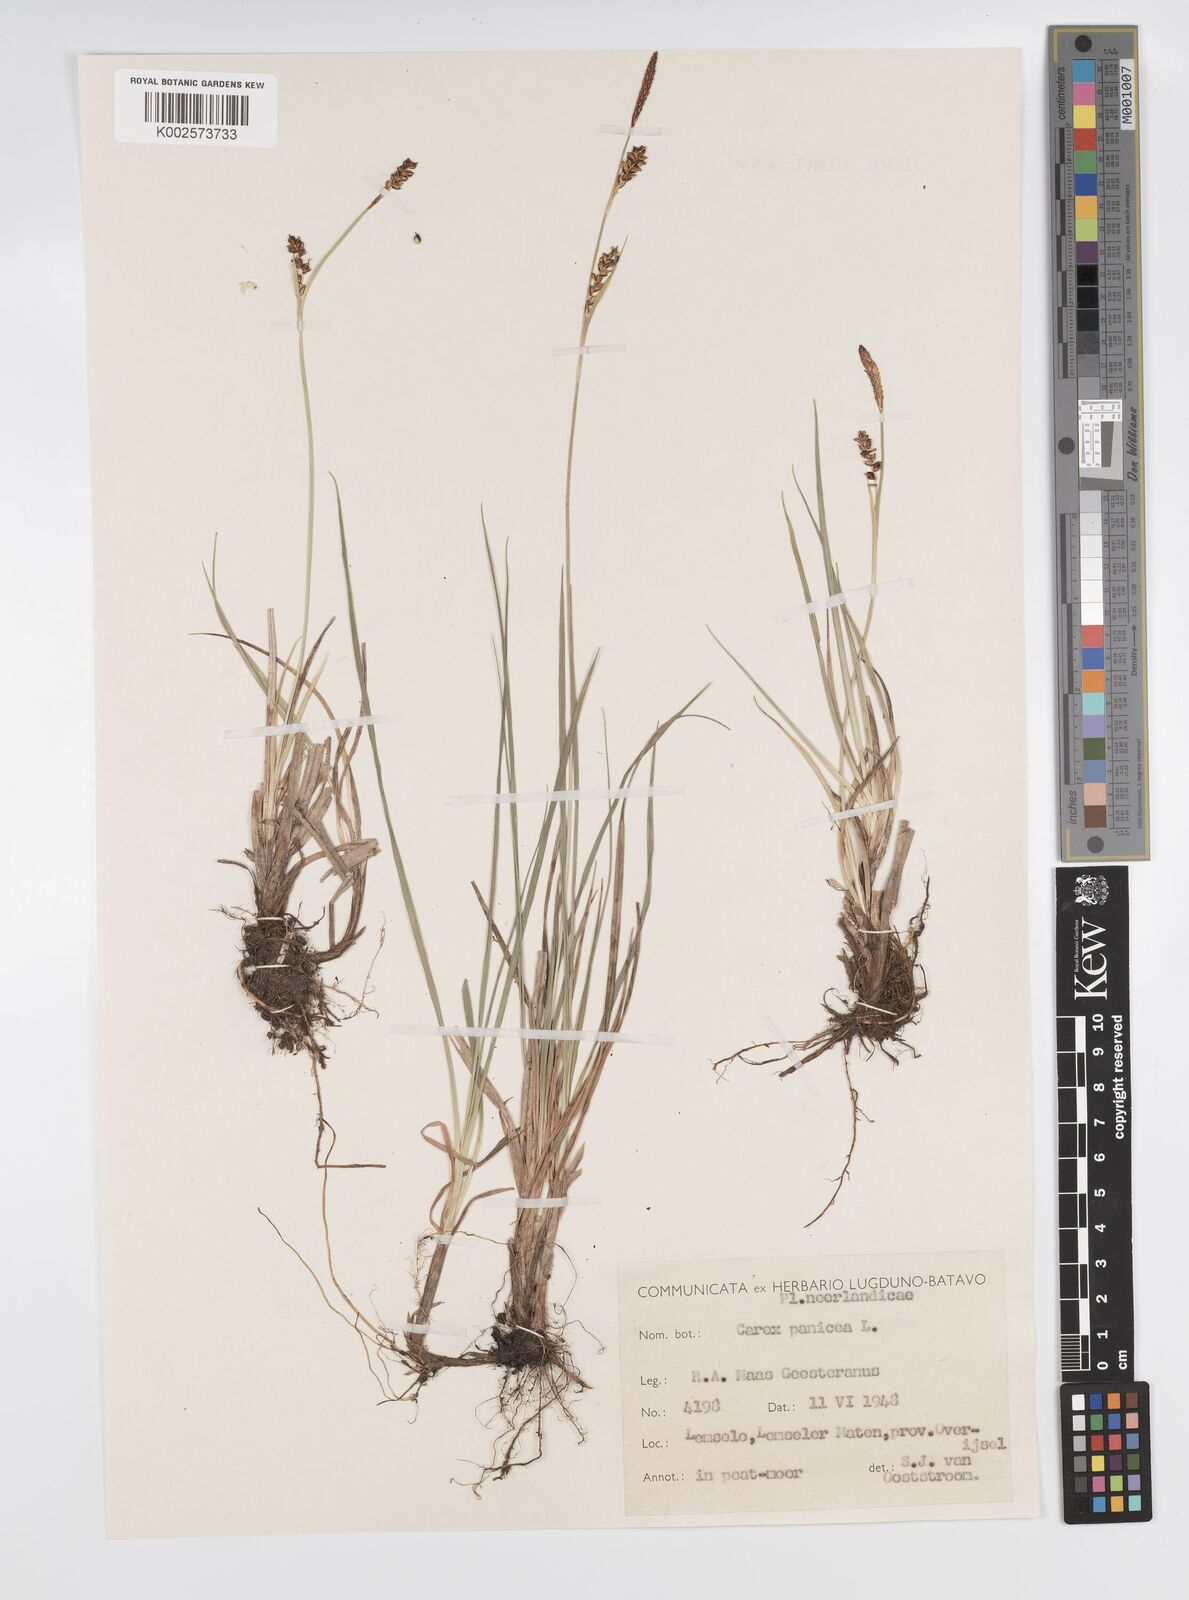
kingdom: Plantae
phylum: Tracheophyta
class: Liliopsida
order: Poales
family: Cyperaceae
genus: Carex
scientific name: Carex panicea
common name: Carnation sedge
